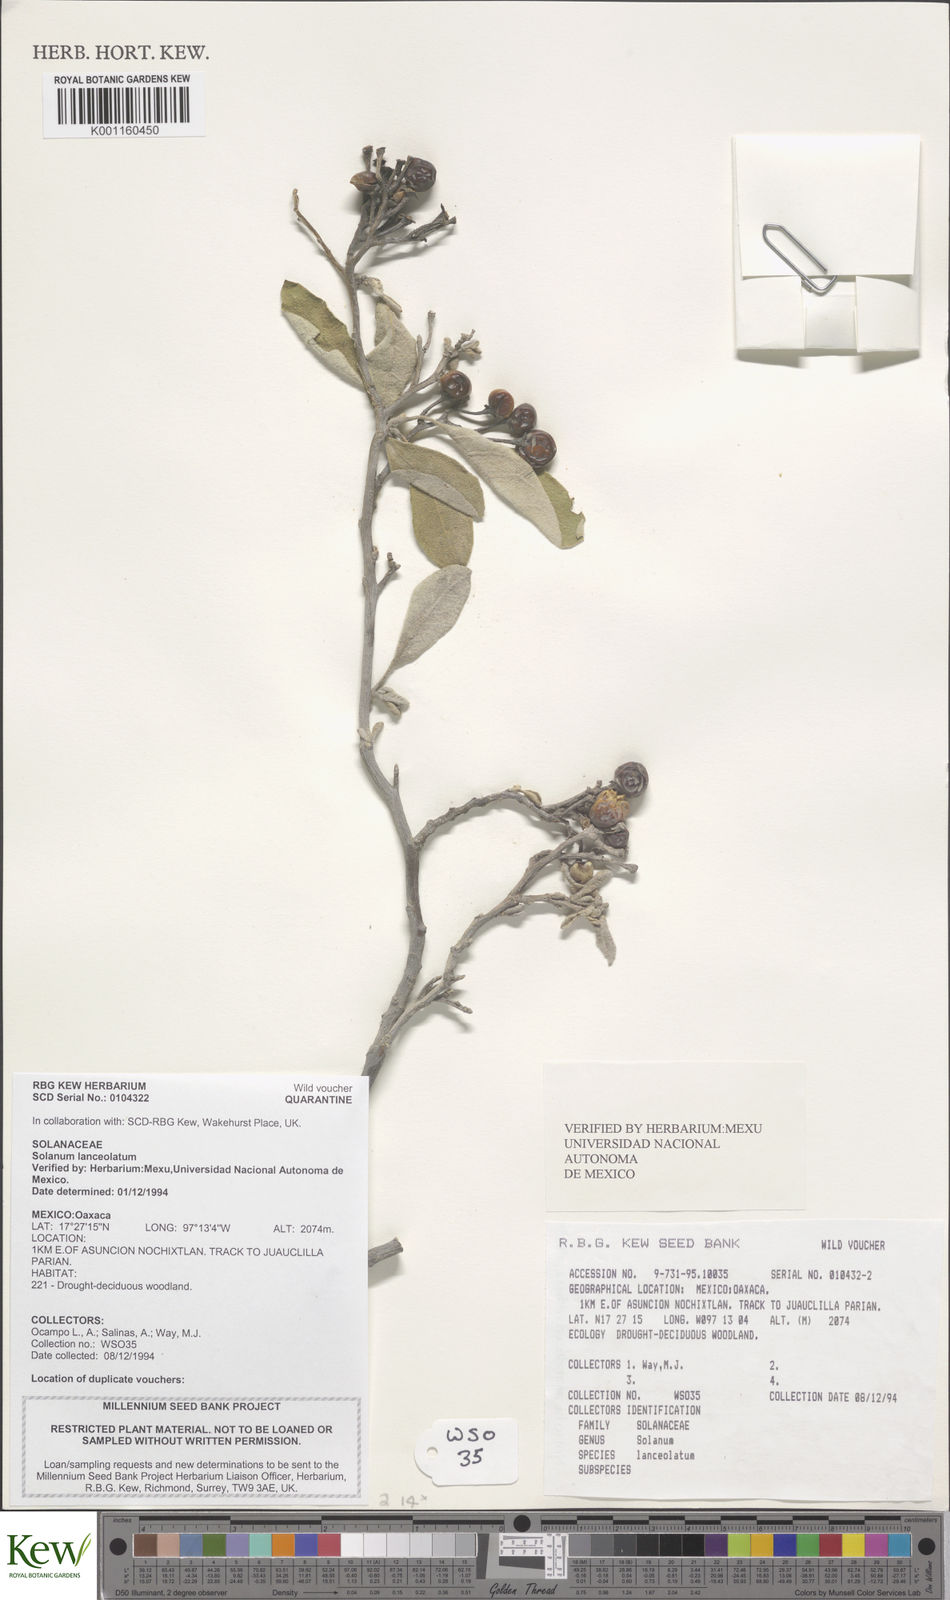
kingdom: Plantae
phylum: Tracheophyta
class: Magnoliopsida
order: Solanales
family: Solanaceae
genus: Solanum
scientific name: Solanum lanceolatum
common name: Orangeberry nightshade
